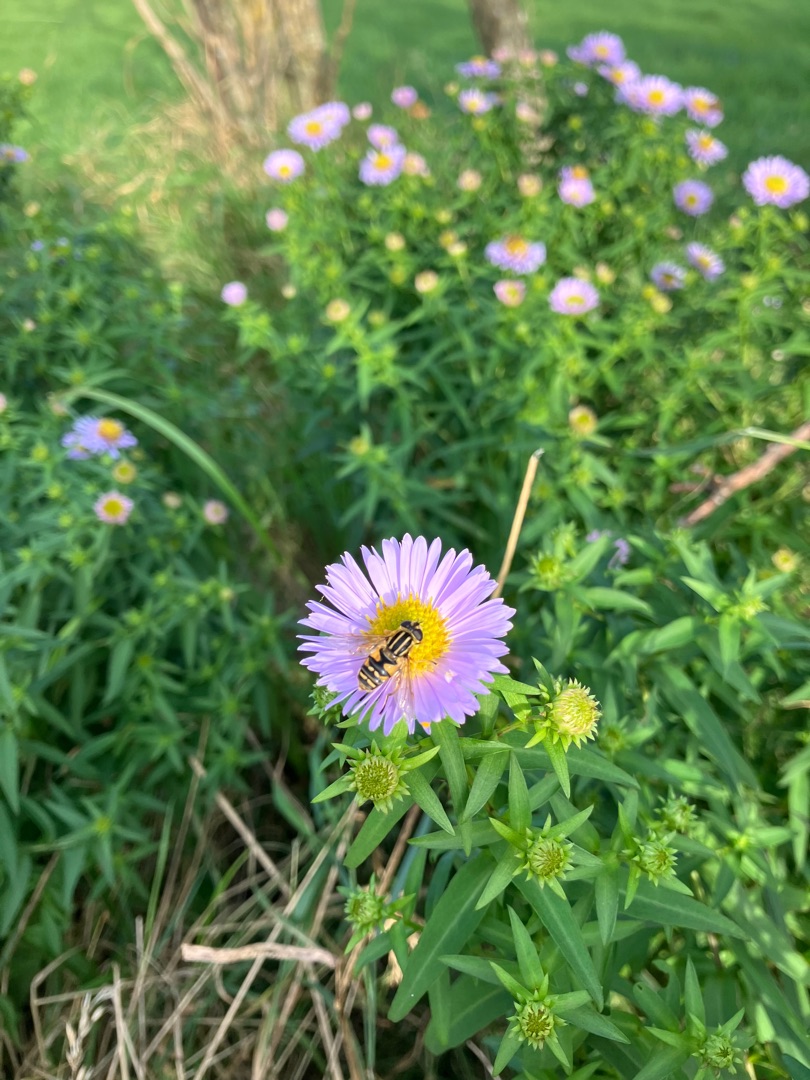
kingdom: Animalia
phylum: Arthropoda
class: Insecta
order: Diptera
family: Syrphidae
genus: Helophilus
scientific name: Helophilus pendulus
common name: Almindelig sumpsvirreflue
